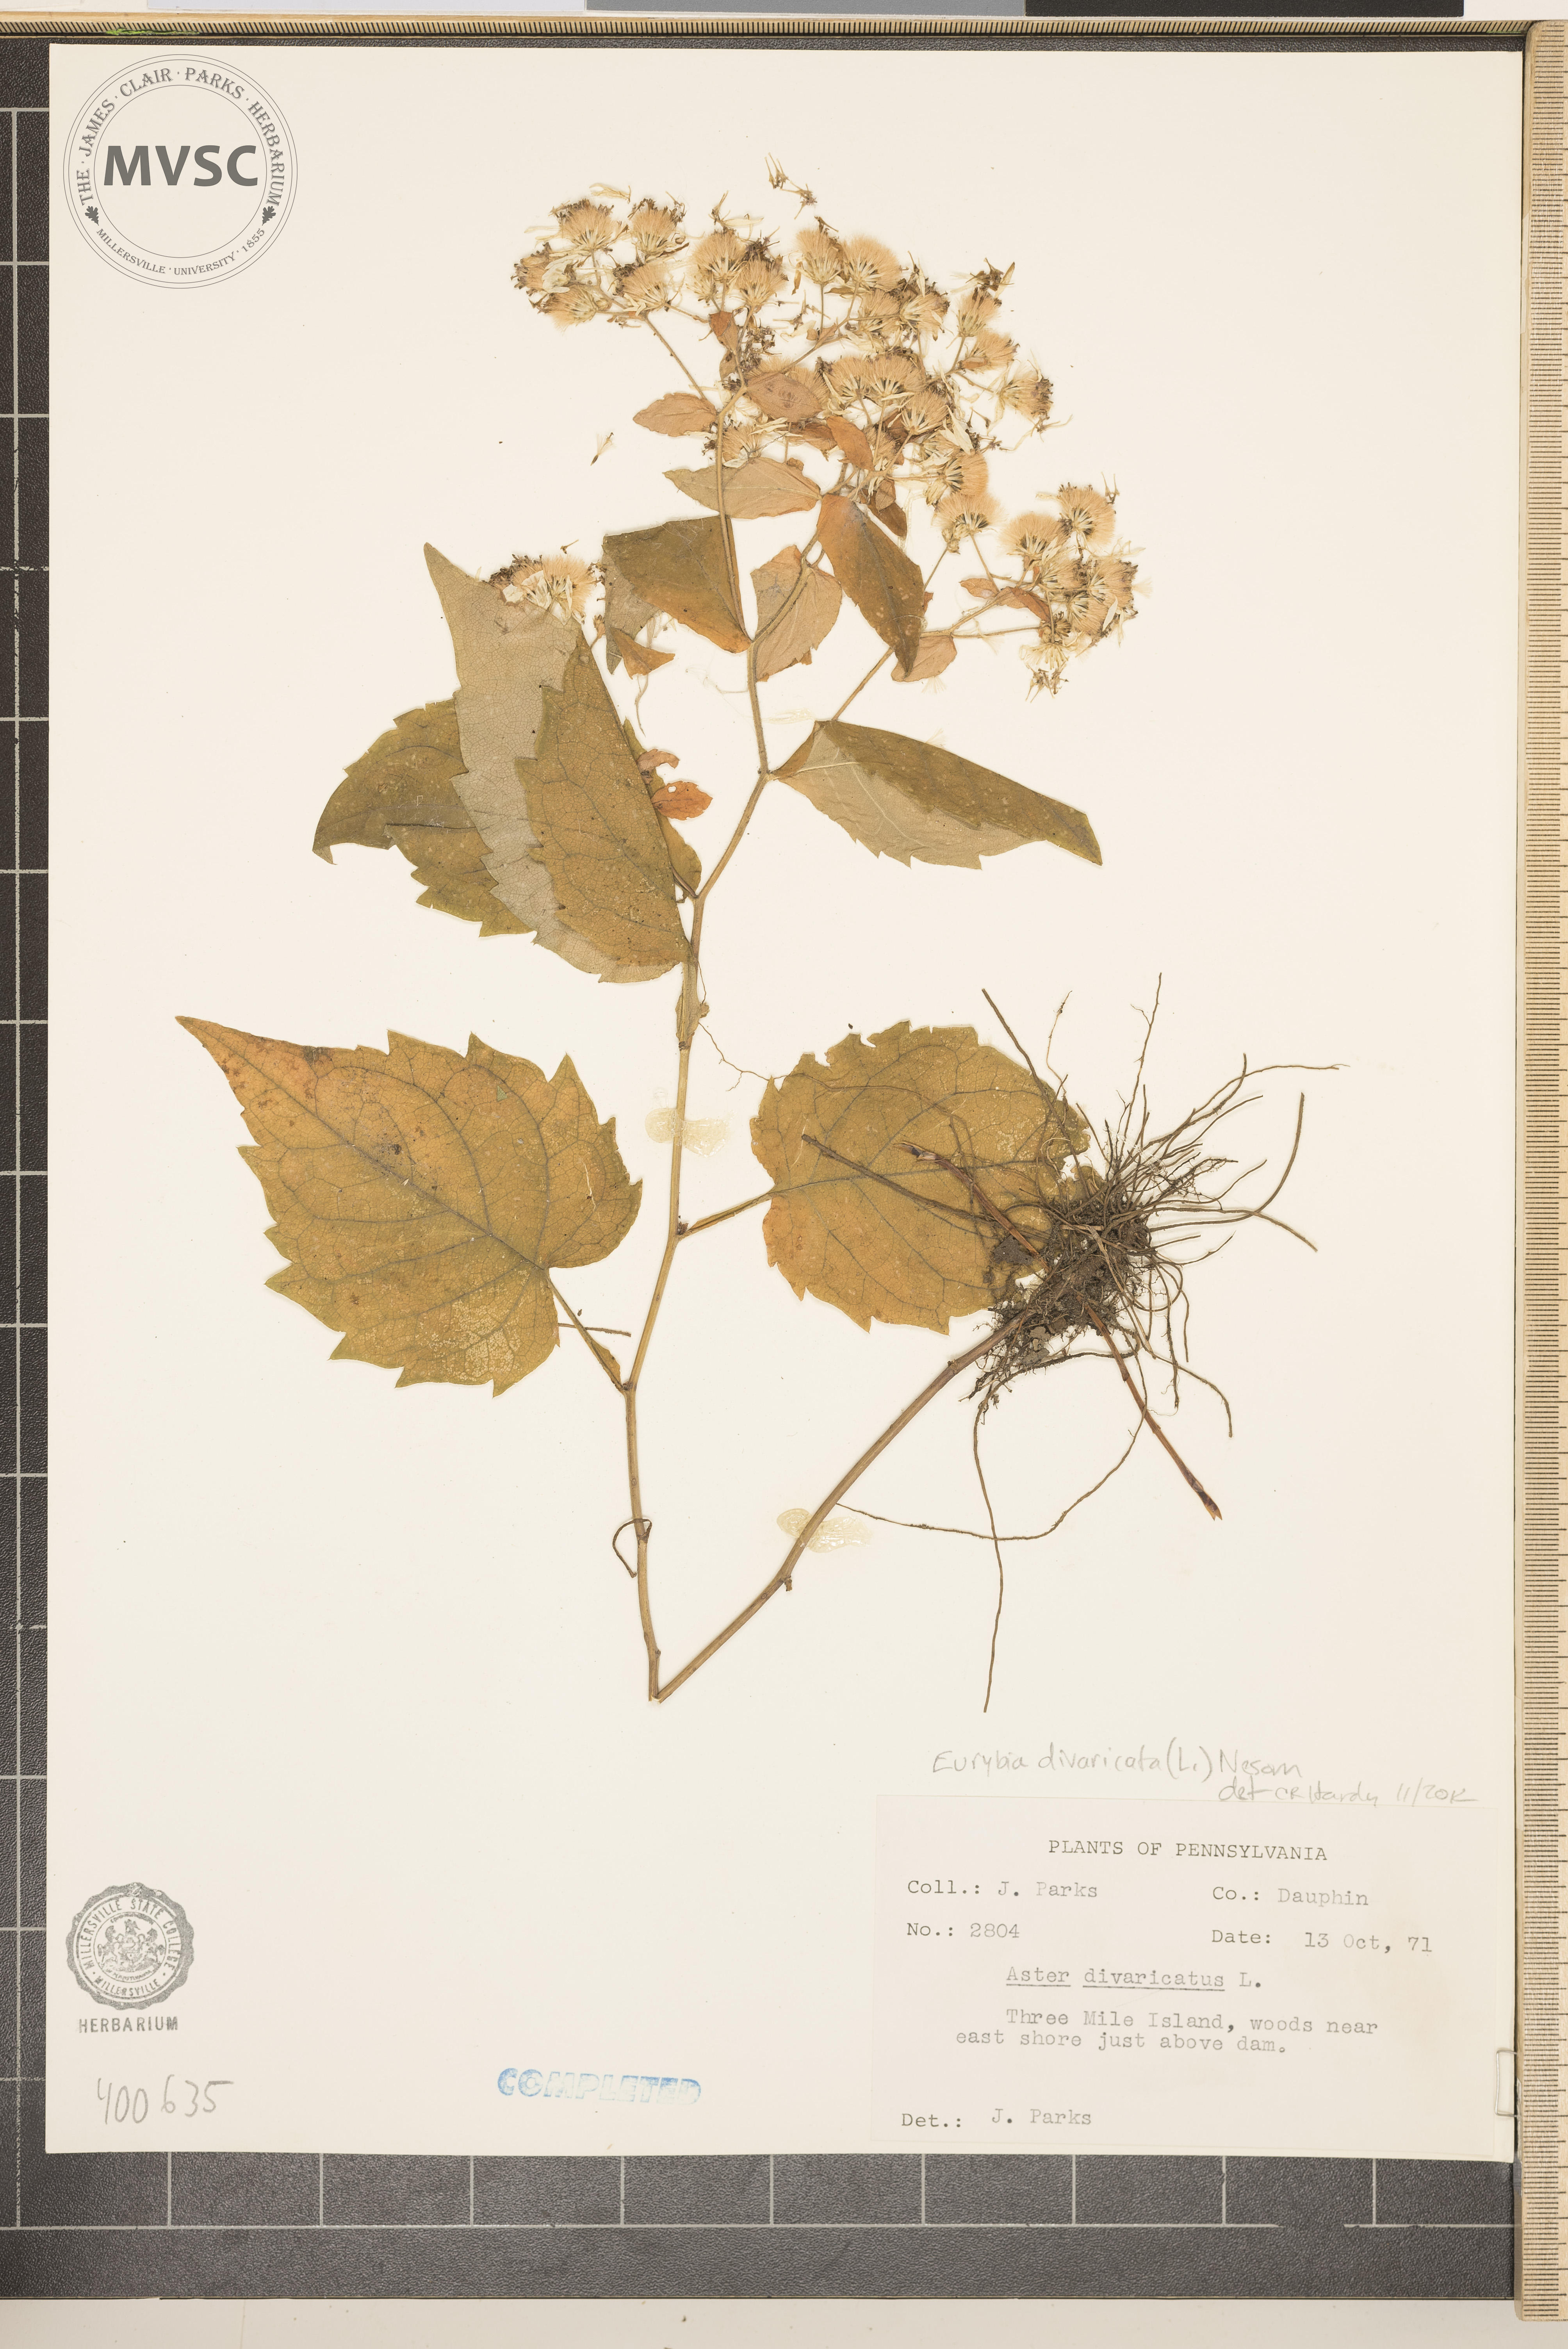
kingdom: Plantae
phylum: Tracheophyta
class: Magnoliopsida
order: Asterales
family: Asteraceae
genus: Eurybia
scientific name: Eurybia divaricata
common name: aster
